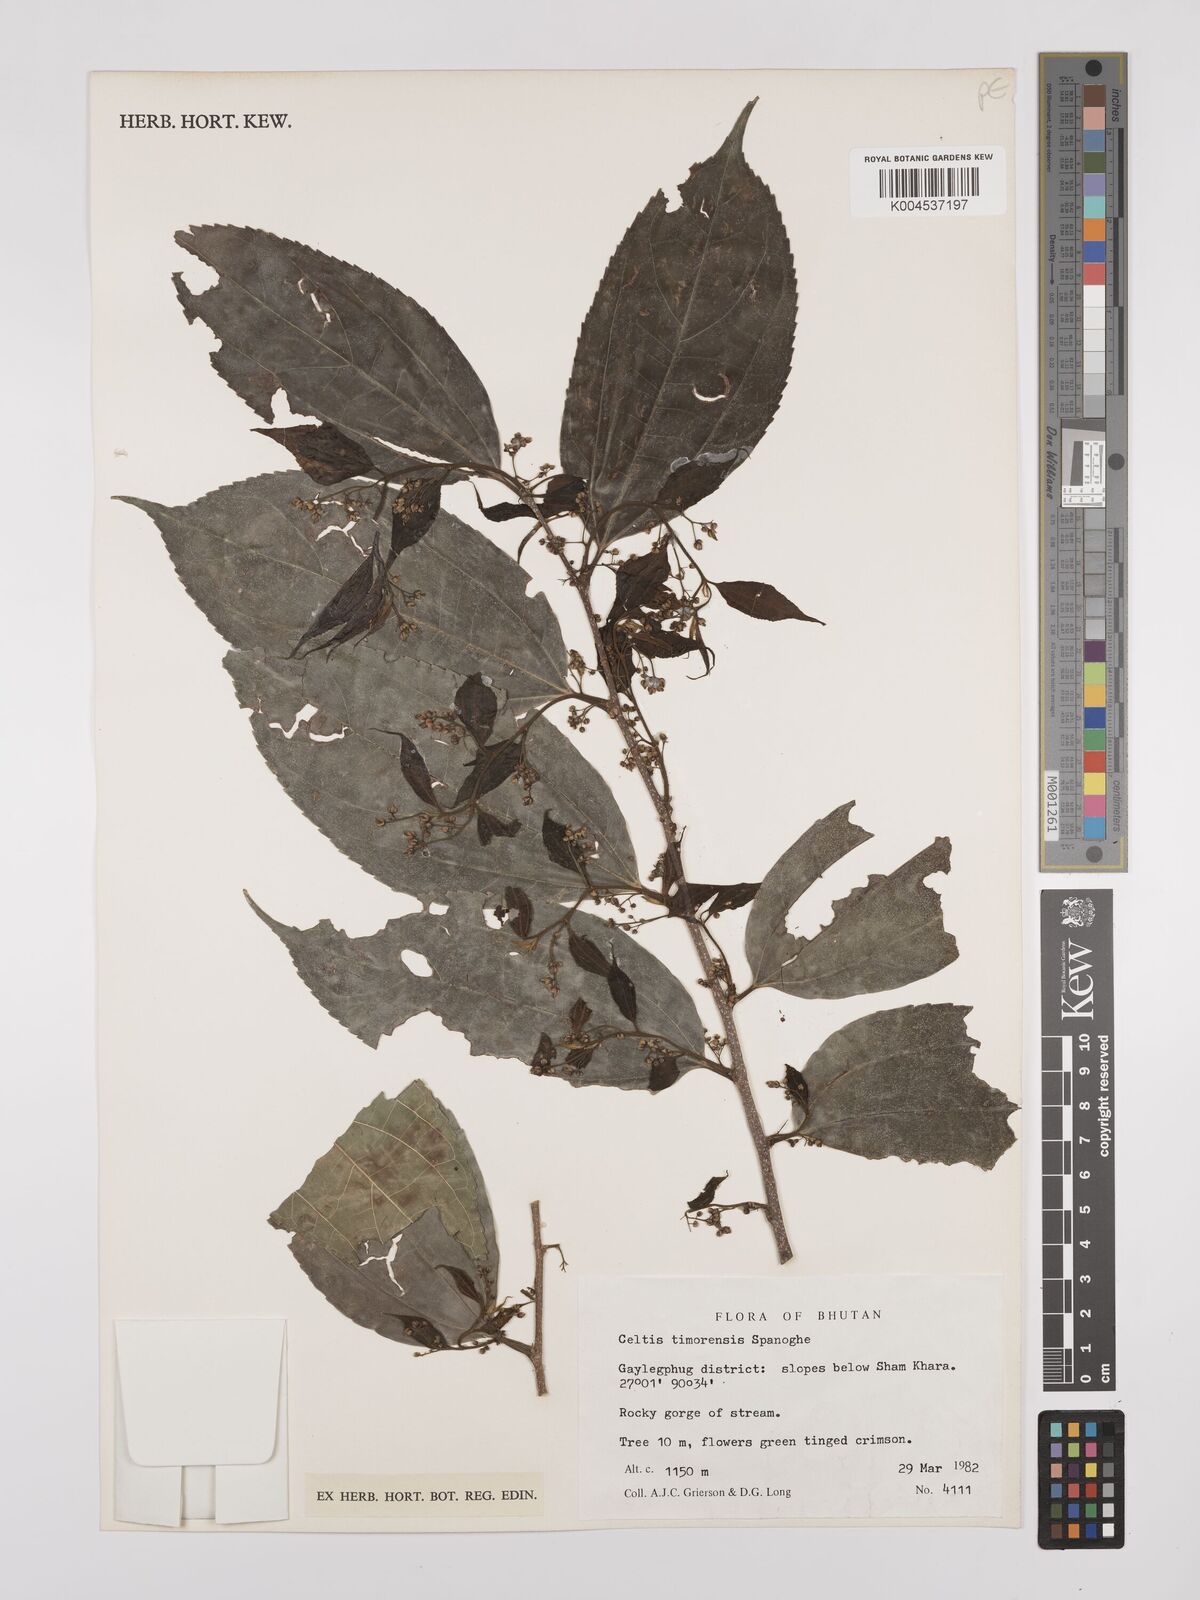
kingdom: Plantae
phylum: Tracheophyta
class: Magnoliopsida
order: Rosales
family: Cannabaceae
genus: Celtis
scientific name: Celtis timorensis
